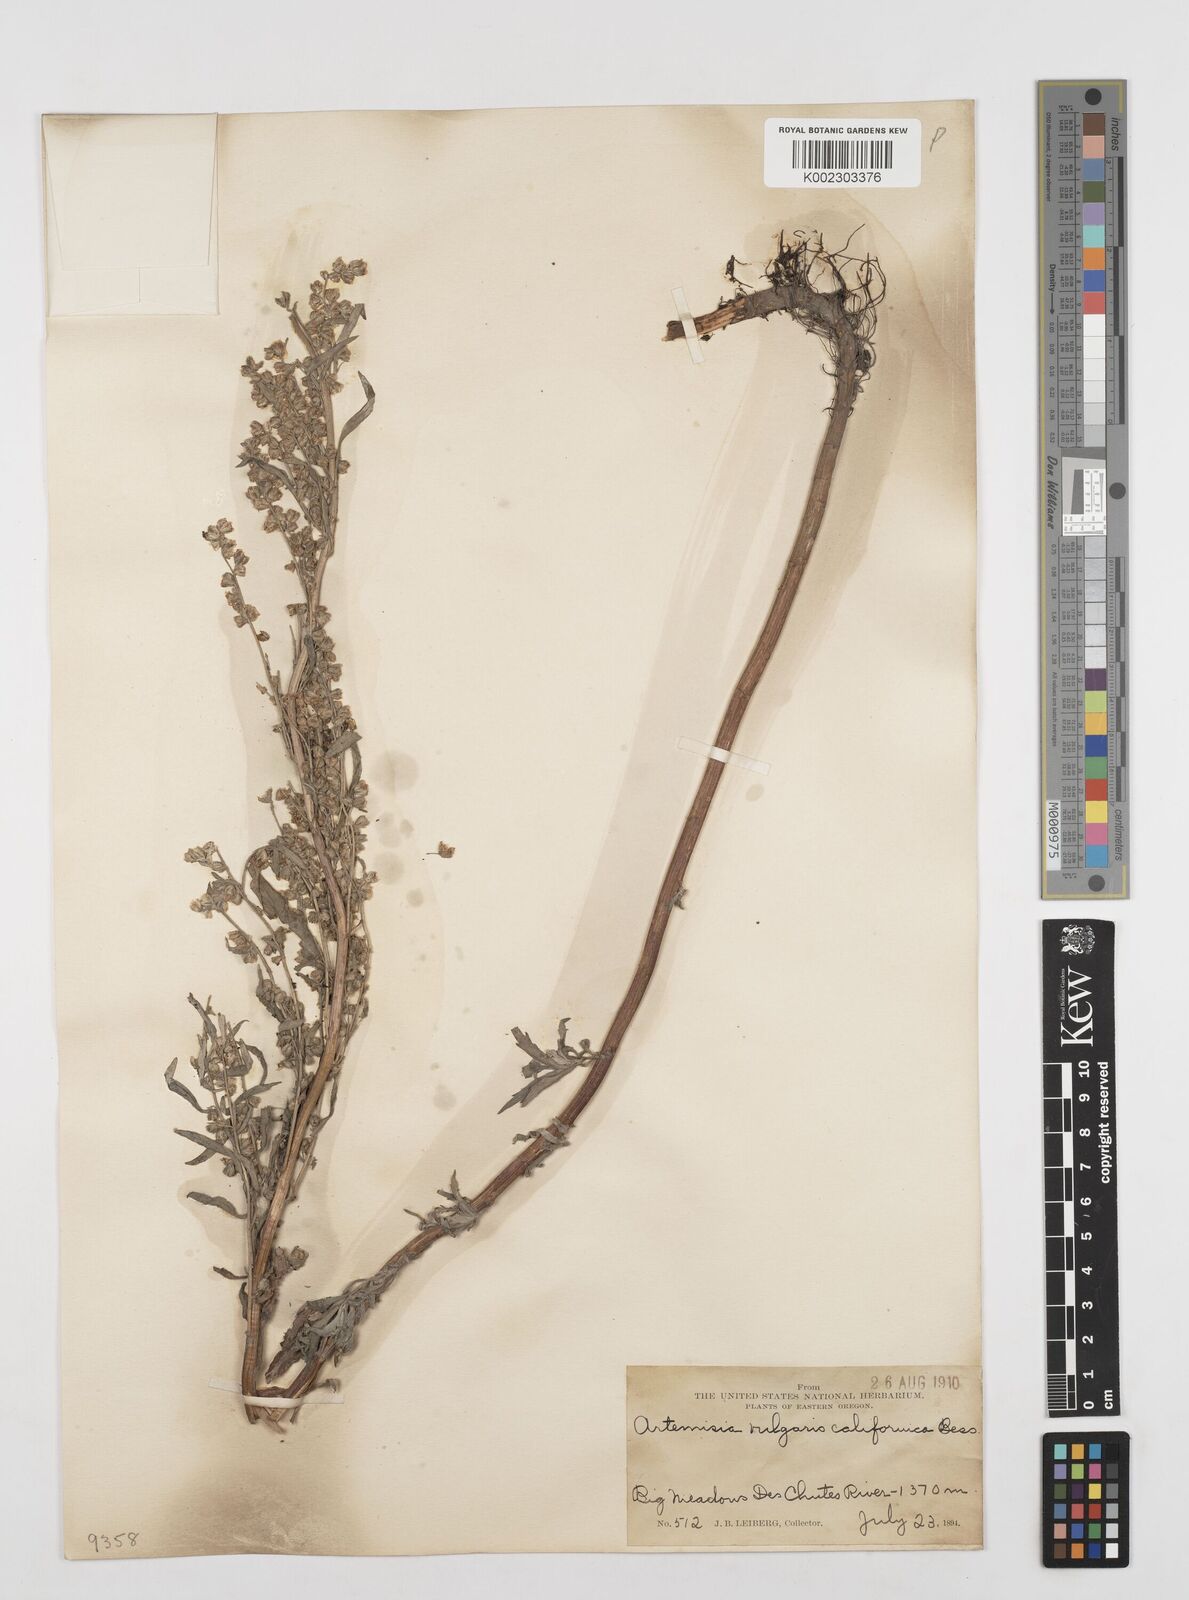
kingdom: Plantae
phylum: Tracheophyta
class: Magnoliopsida
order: Asterales
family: Asteraceae
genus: Artemisia
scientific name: Artemisia
